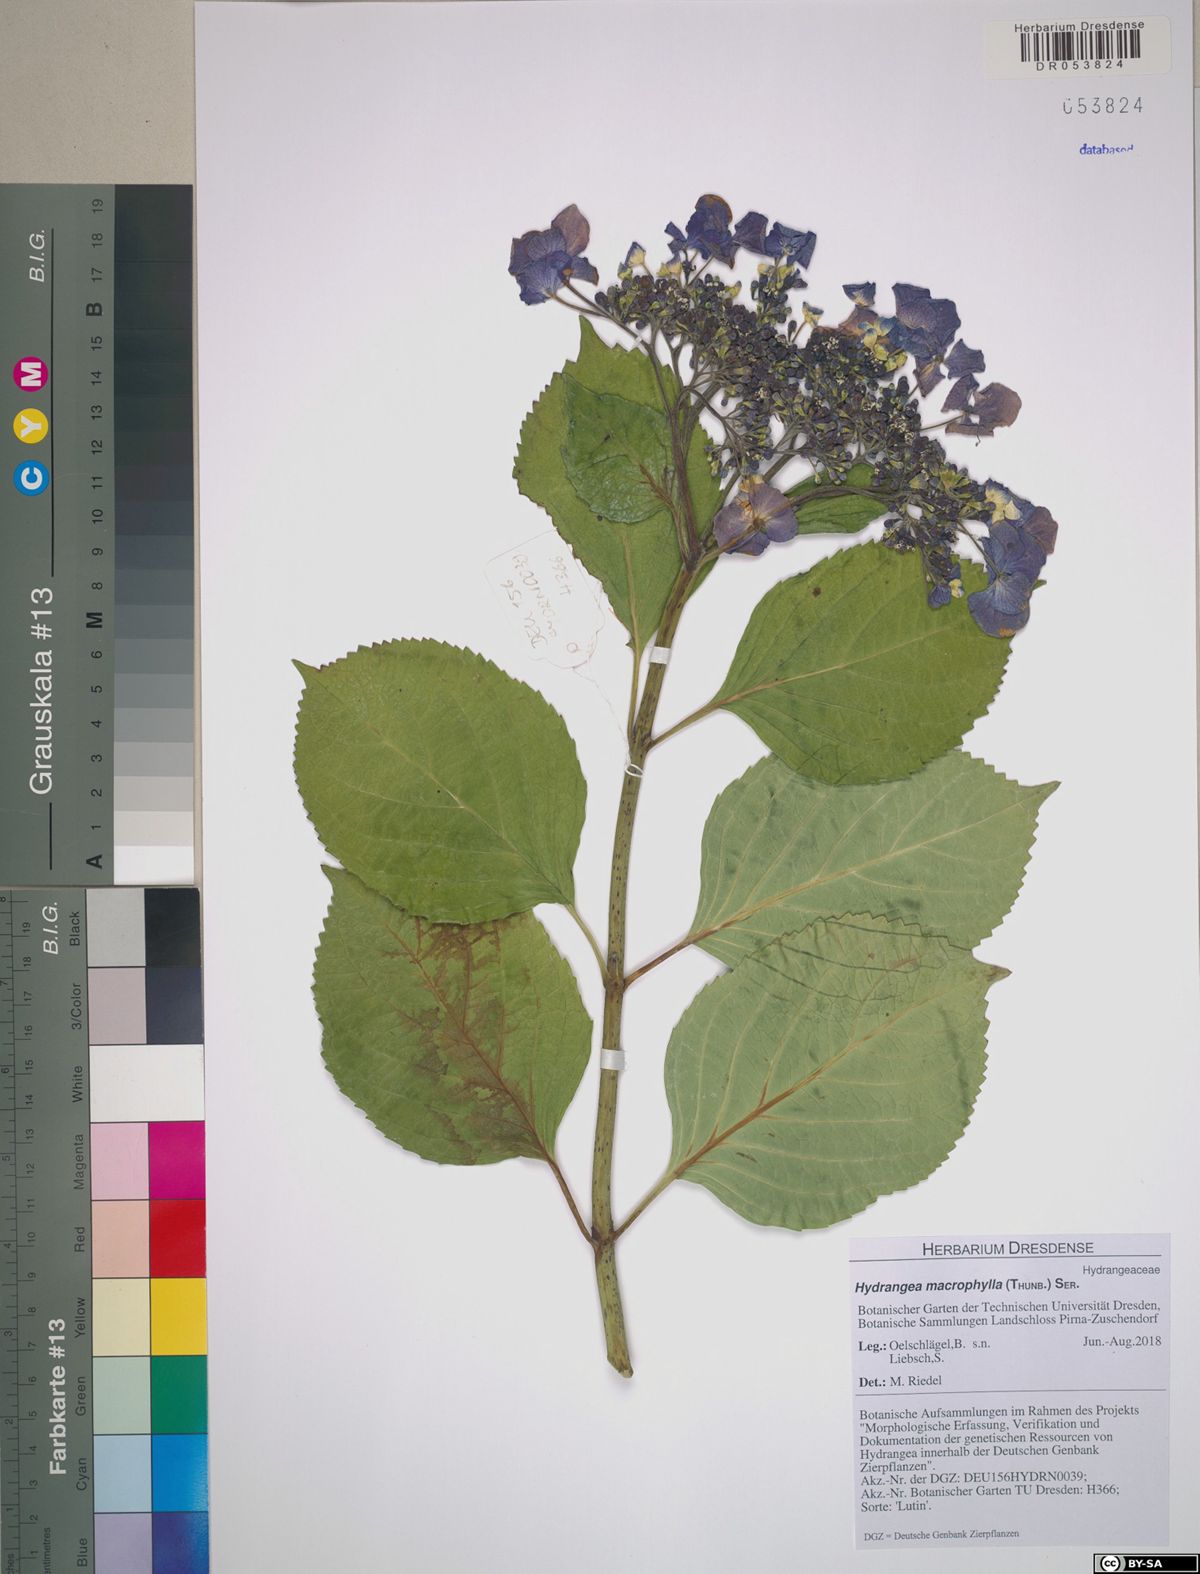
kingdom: Plantae
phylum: Tracheophyta
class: Magnoliopsida
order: Cornales
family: Hydrangeaceae
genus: Hydrangea
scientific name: Hydrangea macrophylla
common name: Hydrangea
